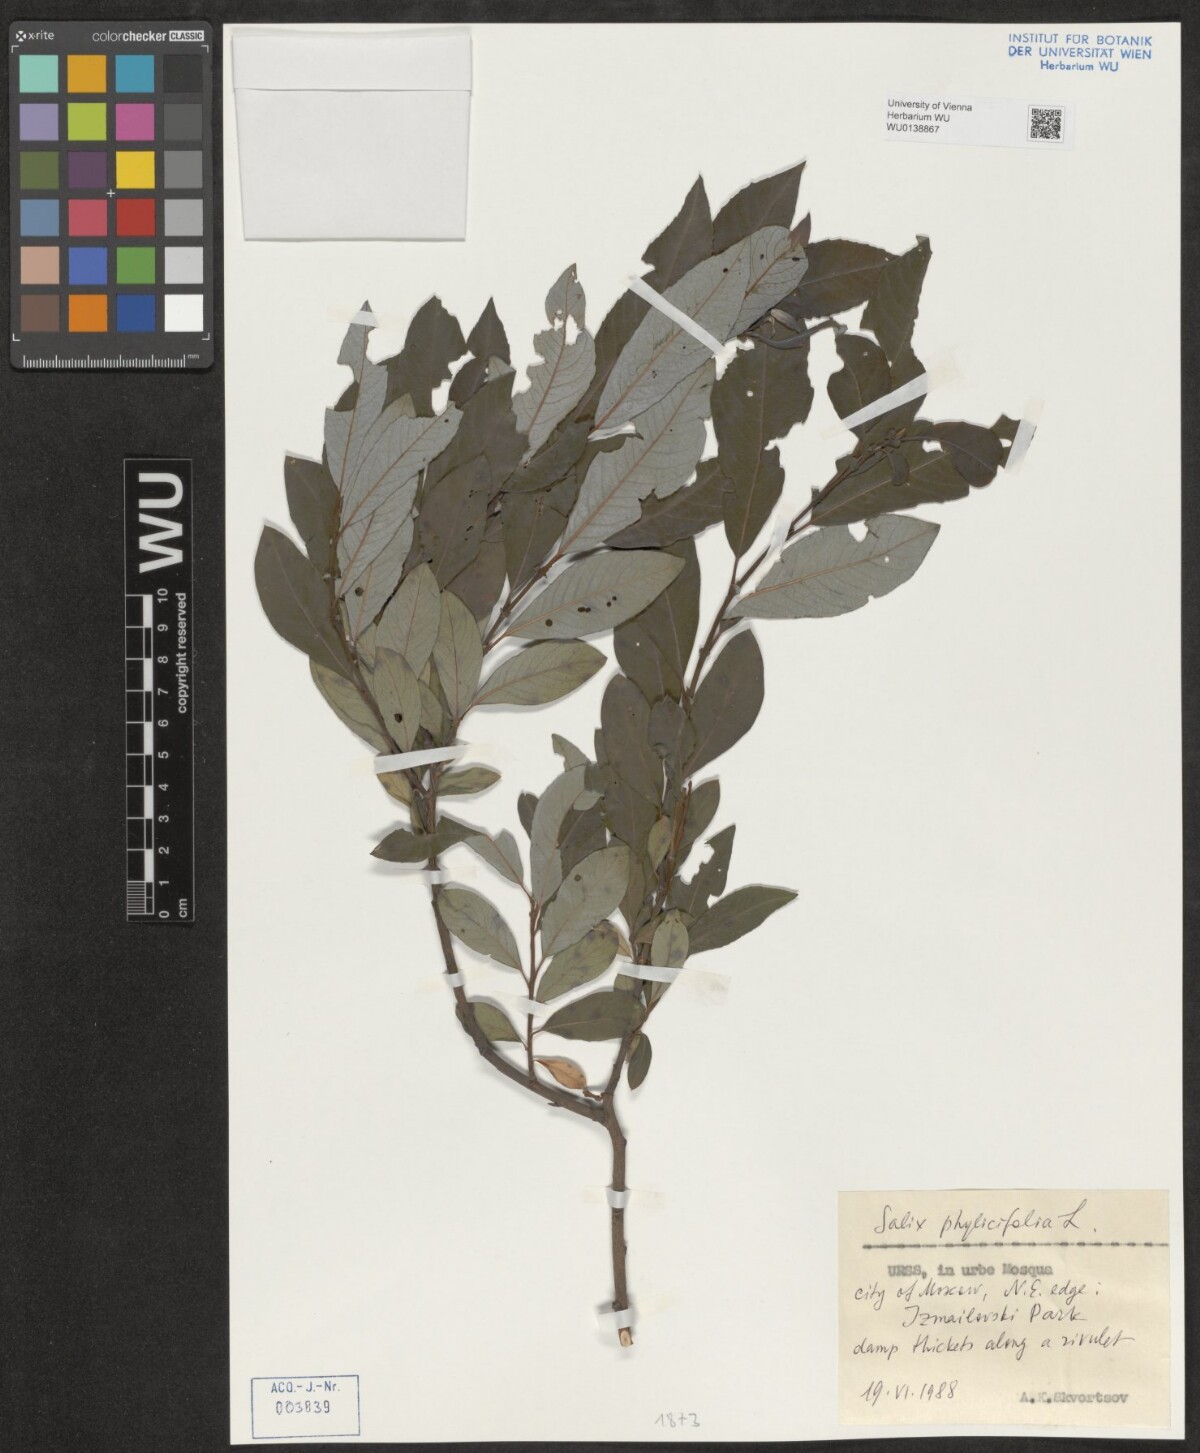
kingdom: Plantae
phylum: Tracheophyta
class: Magnoliopsida
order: Malpighiales
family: Salicaceae
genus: Salix
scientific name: Salix phylicifolia
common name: Tea-leaved willow
